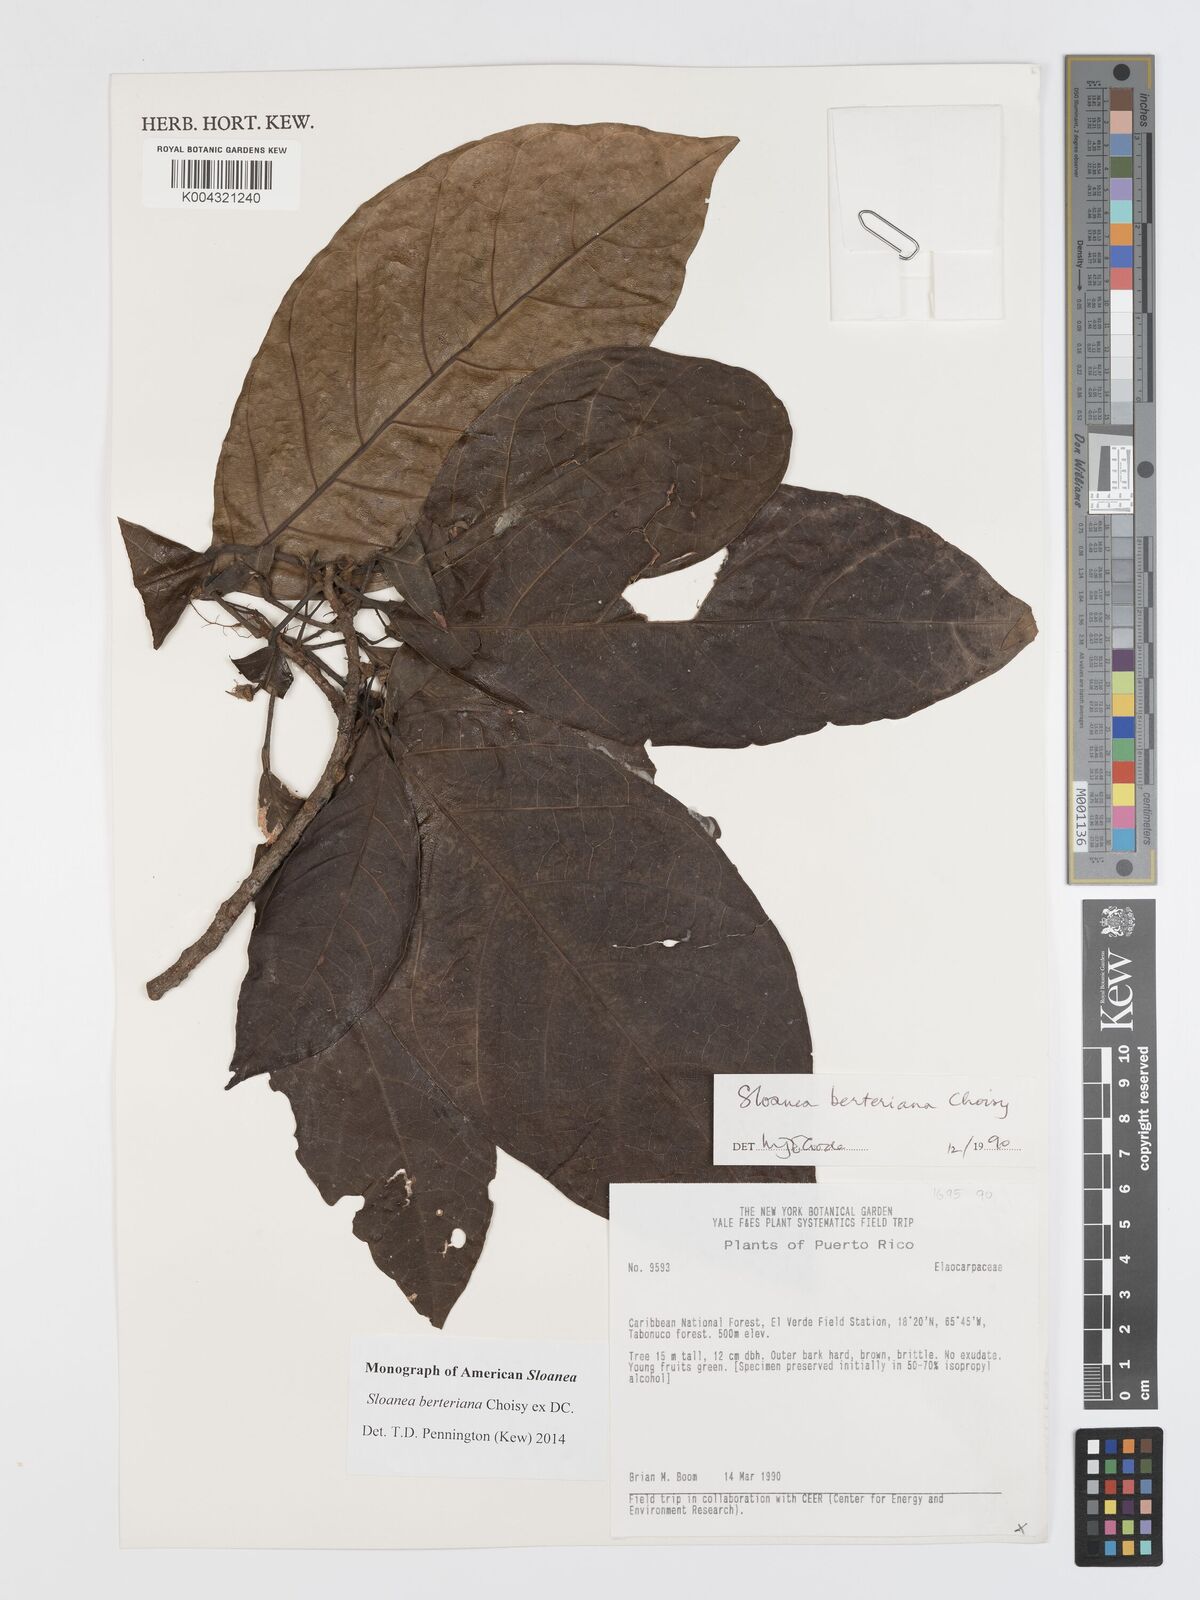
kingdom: Plantae
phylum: Tracheophyta
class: Magnoliopsida
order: Oxalidales
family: Elaeocarpaceae
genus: Sloanea
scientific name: Sloanea berteroana
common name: Bullwood
